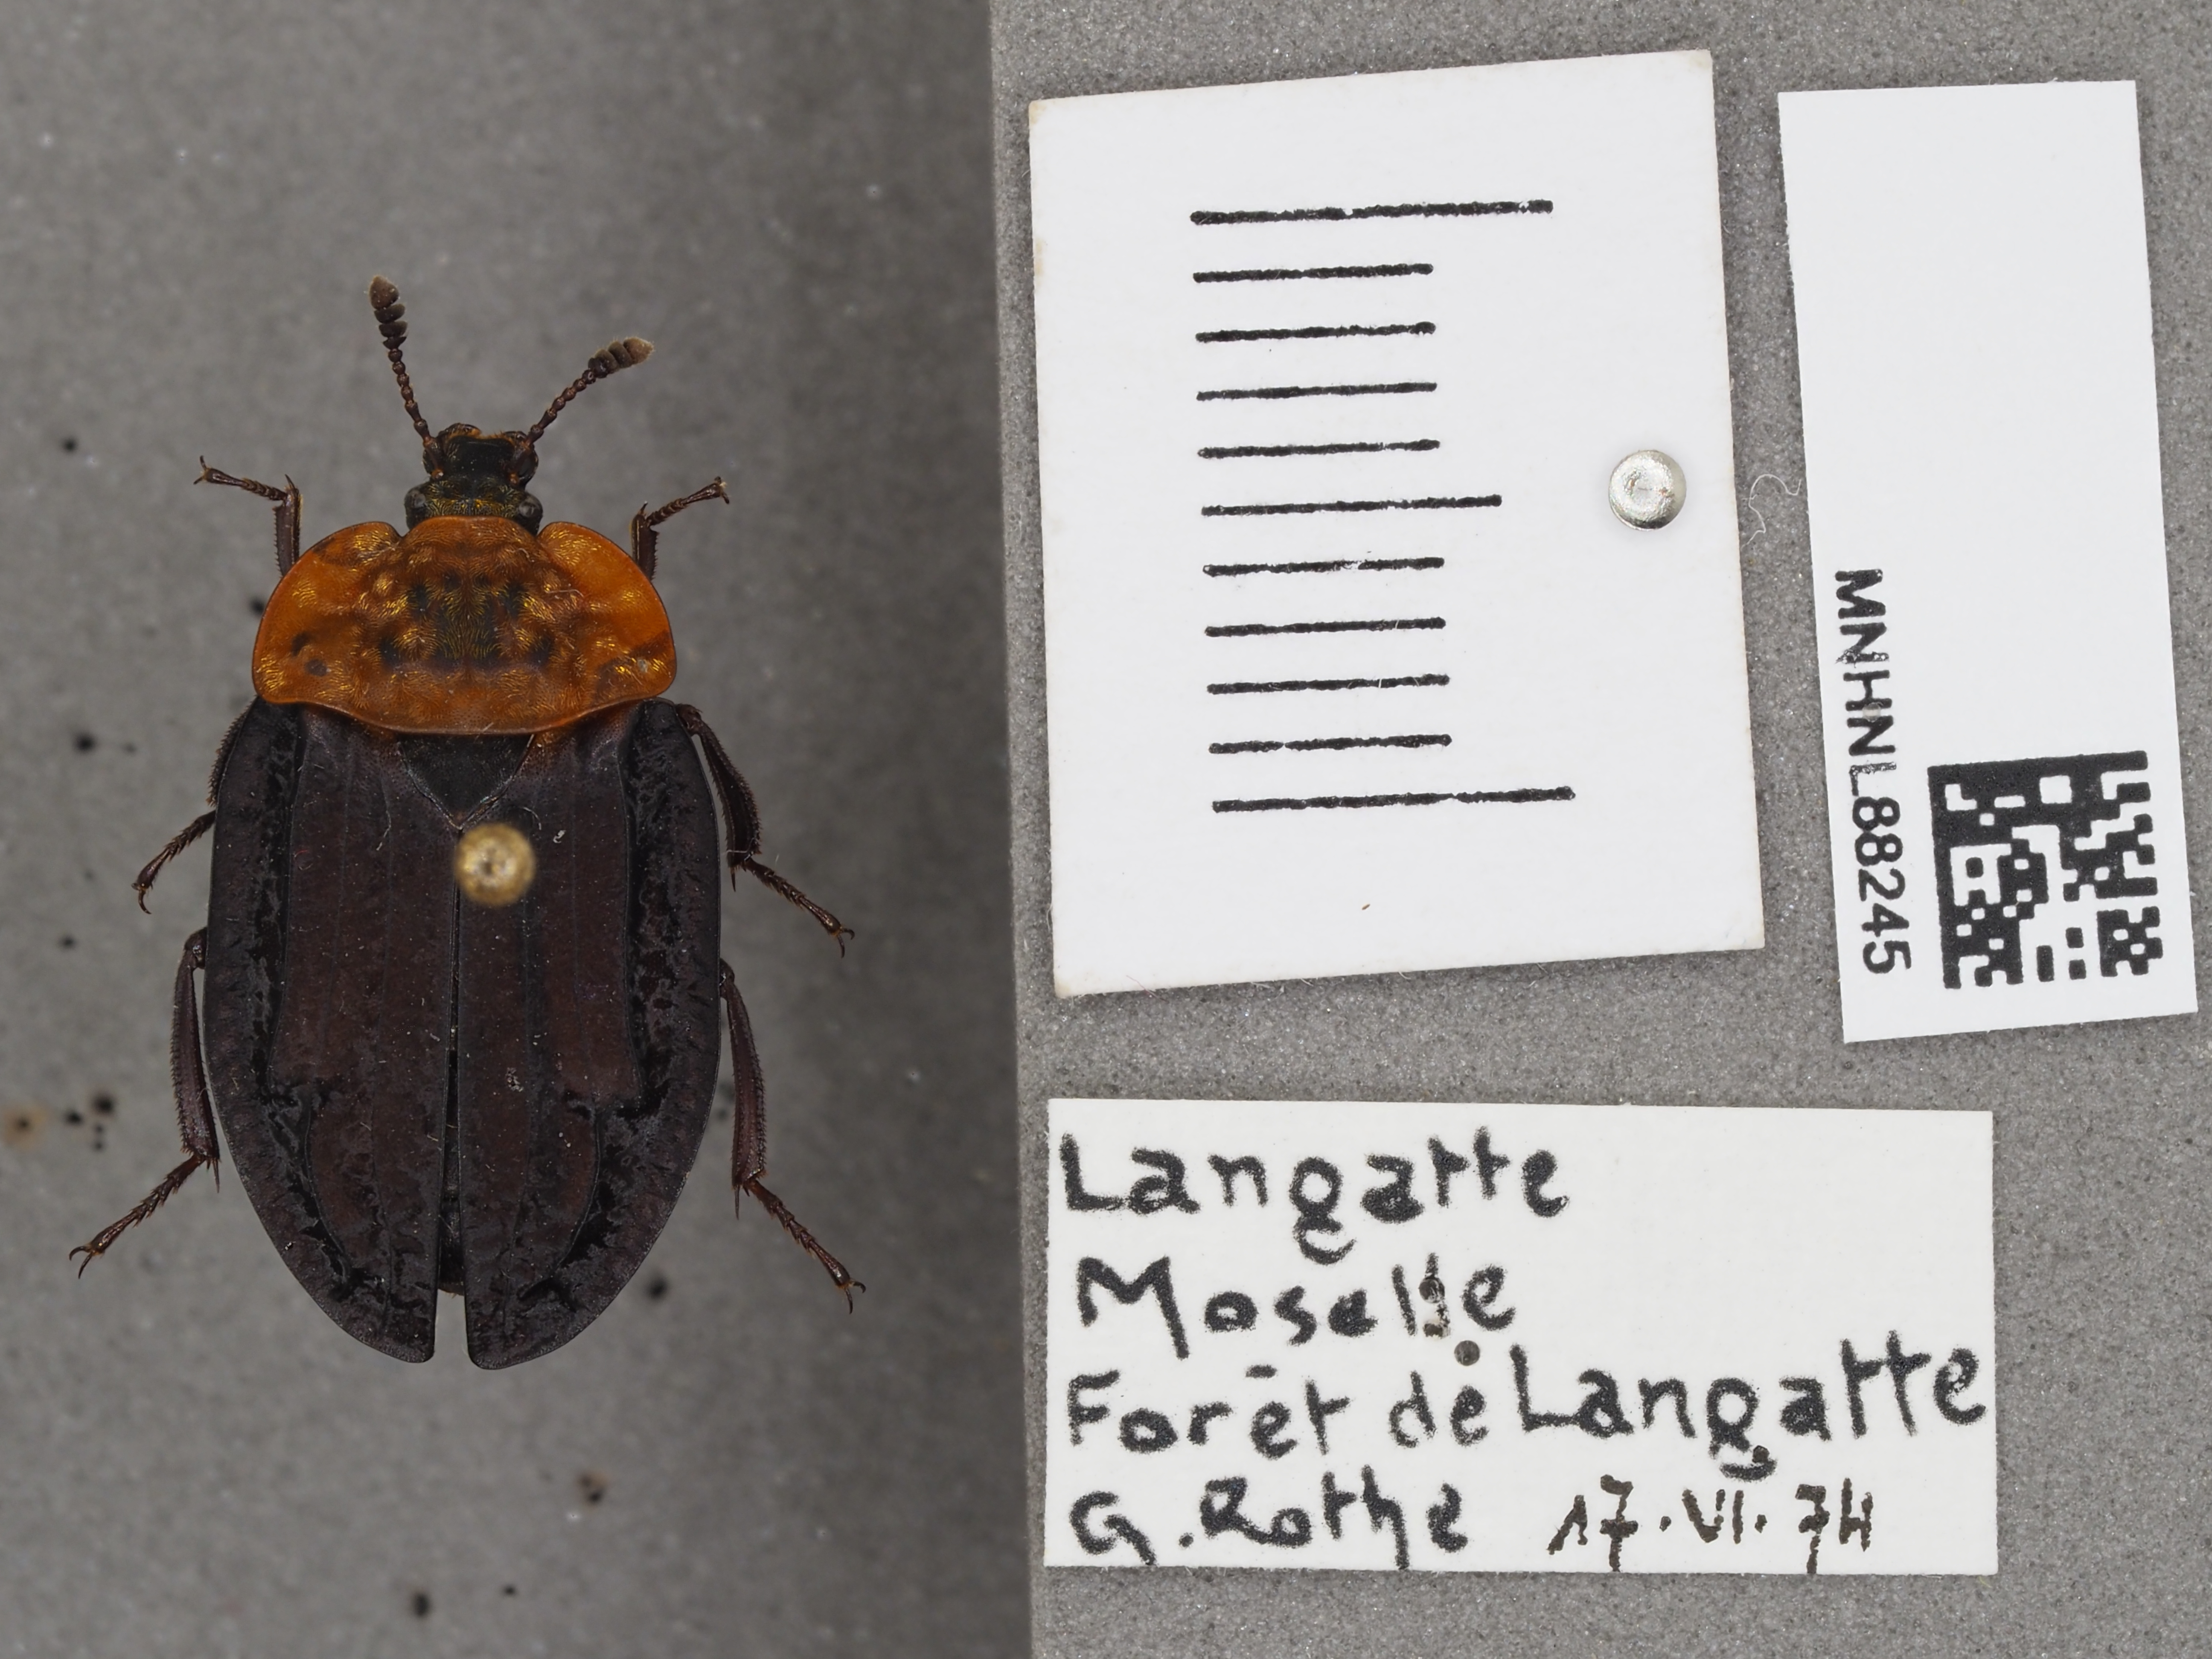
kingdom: Animalia
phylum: Arthropoda
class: Insecta
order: Coleoptera
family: Staphylinidae
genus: Oiceoptoma
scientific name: Oiceoptoma thoracicum
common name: Red-breasted carrion beetle
